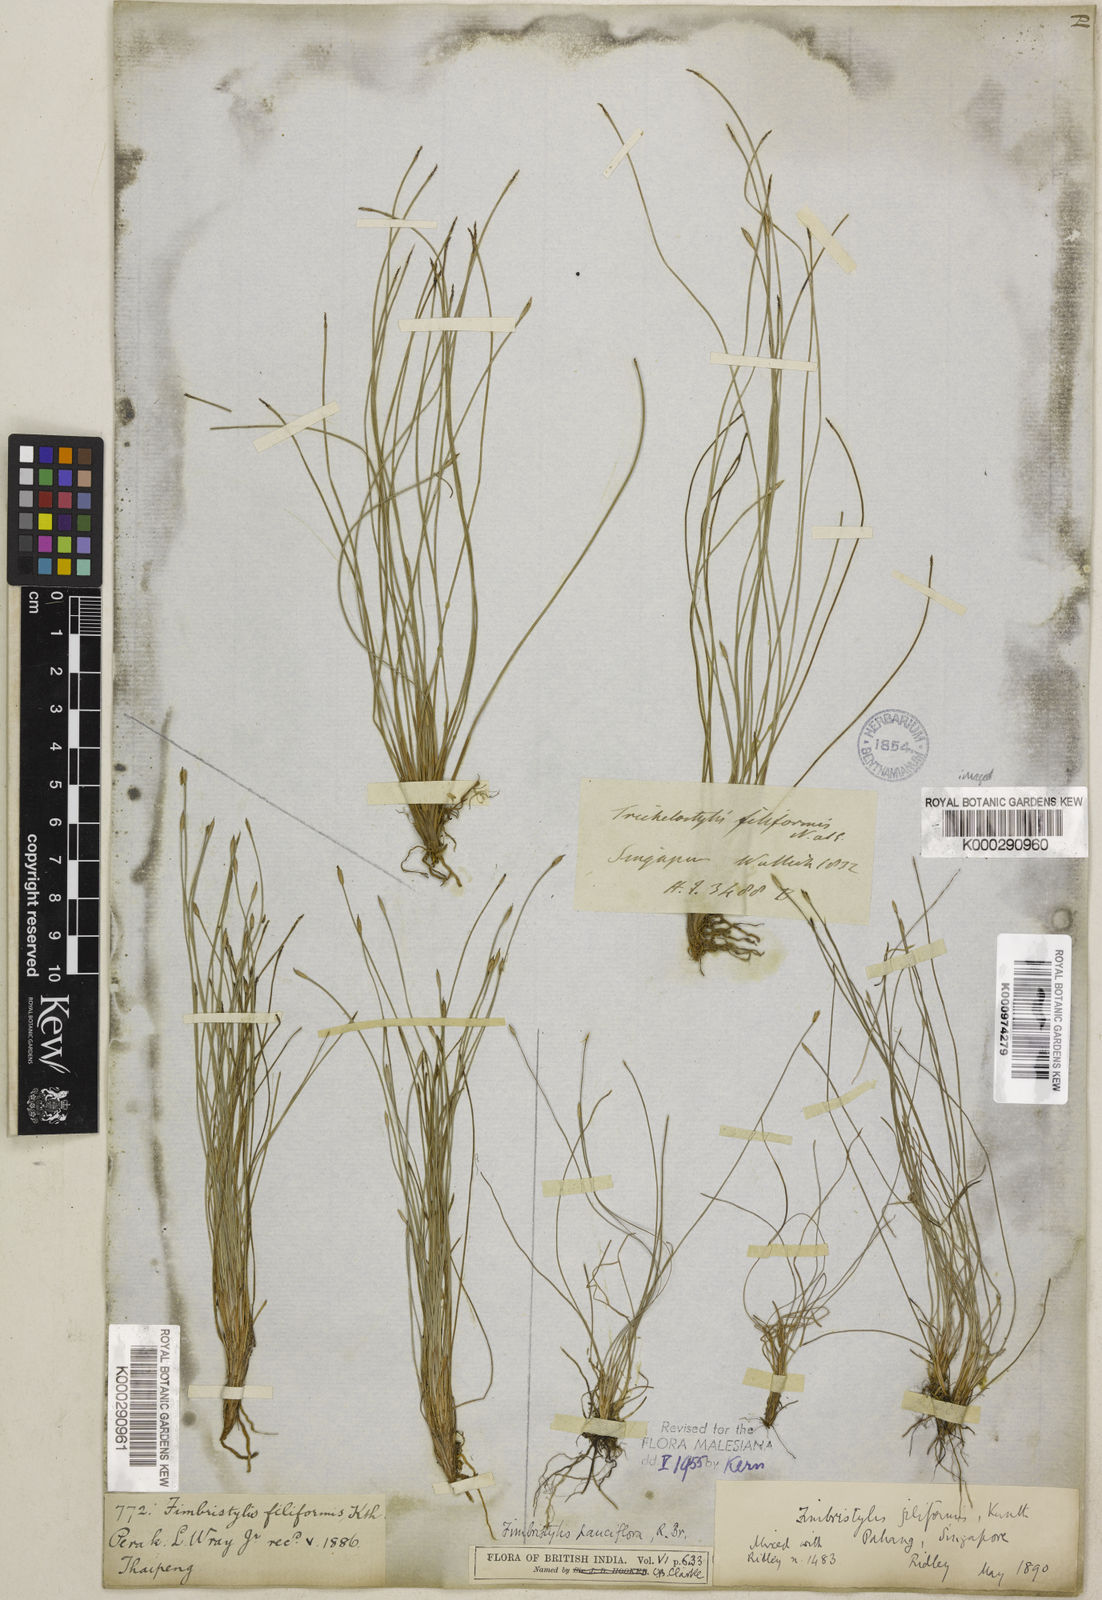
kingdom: Plantae
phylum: Tracheophyta
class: Liliopsida
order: Poales
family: Cyperaceae
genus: Fimbristylis
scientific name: Fimbristylis pauciflora
